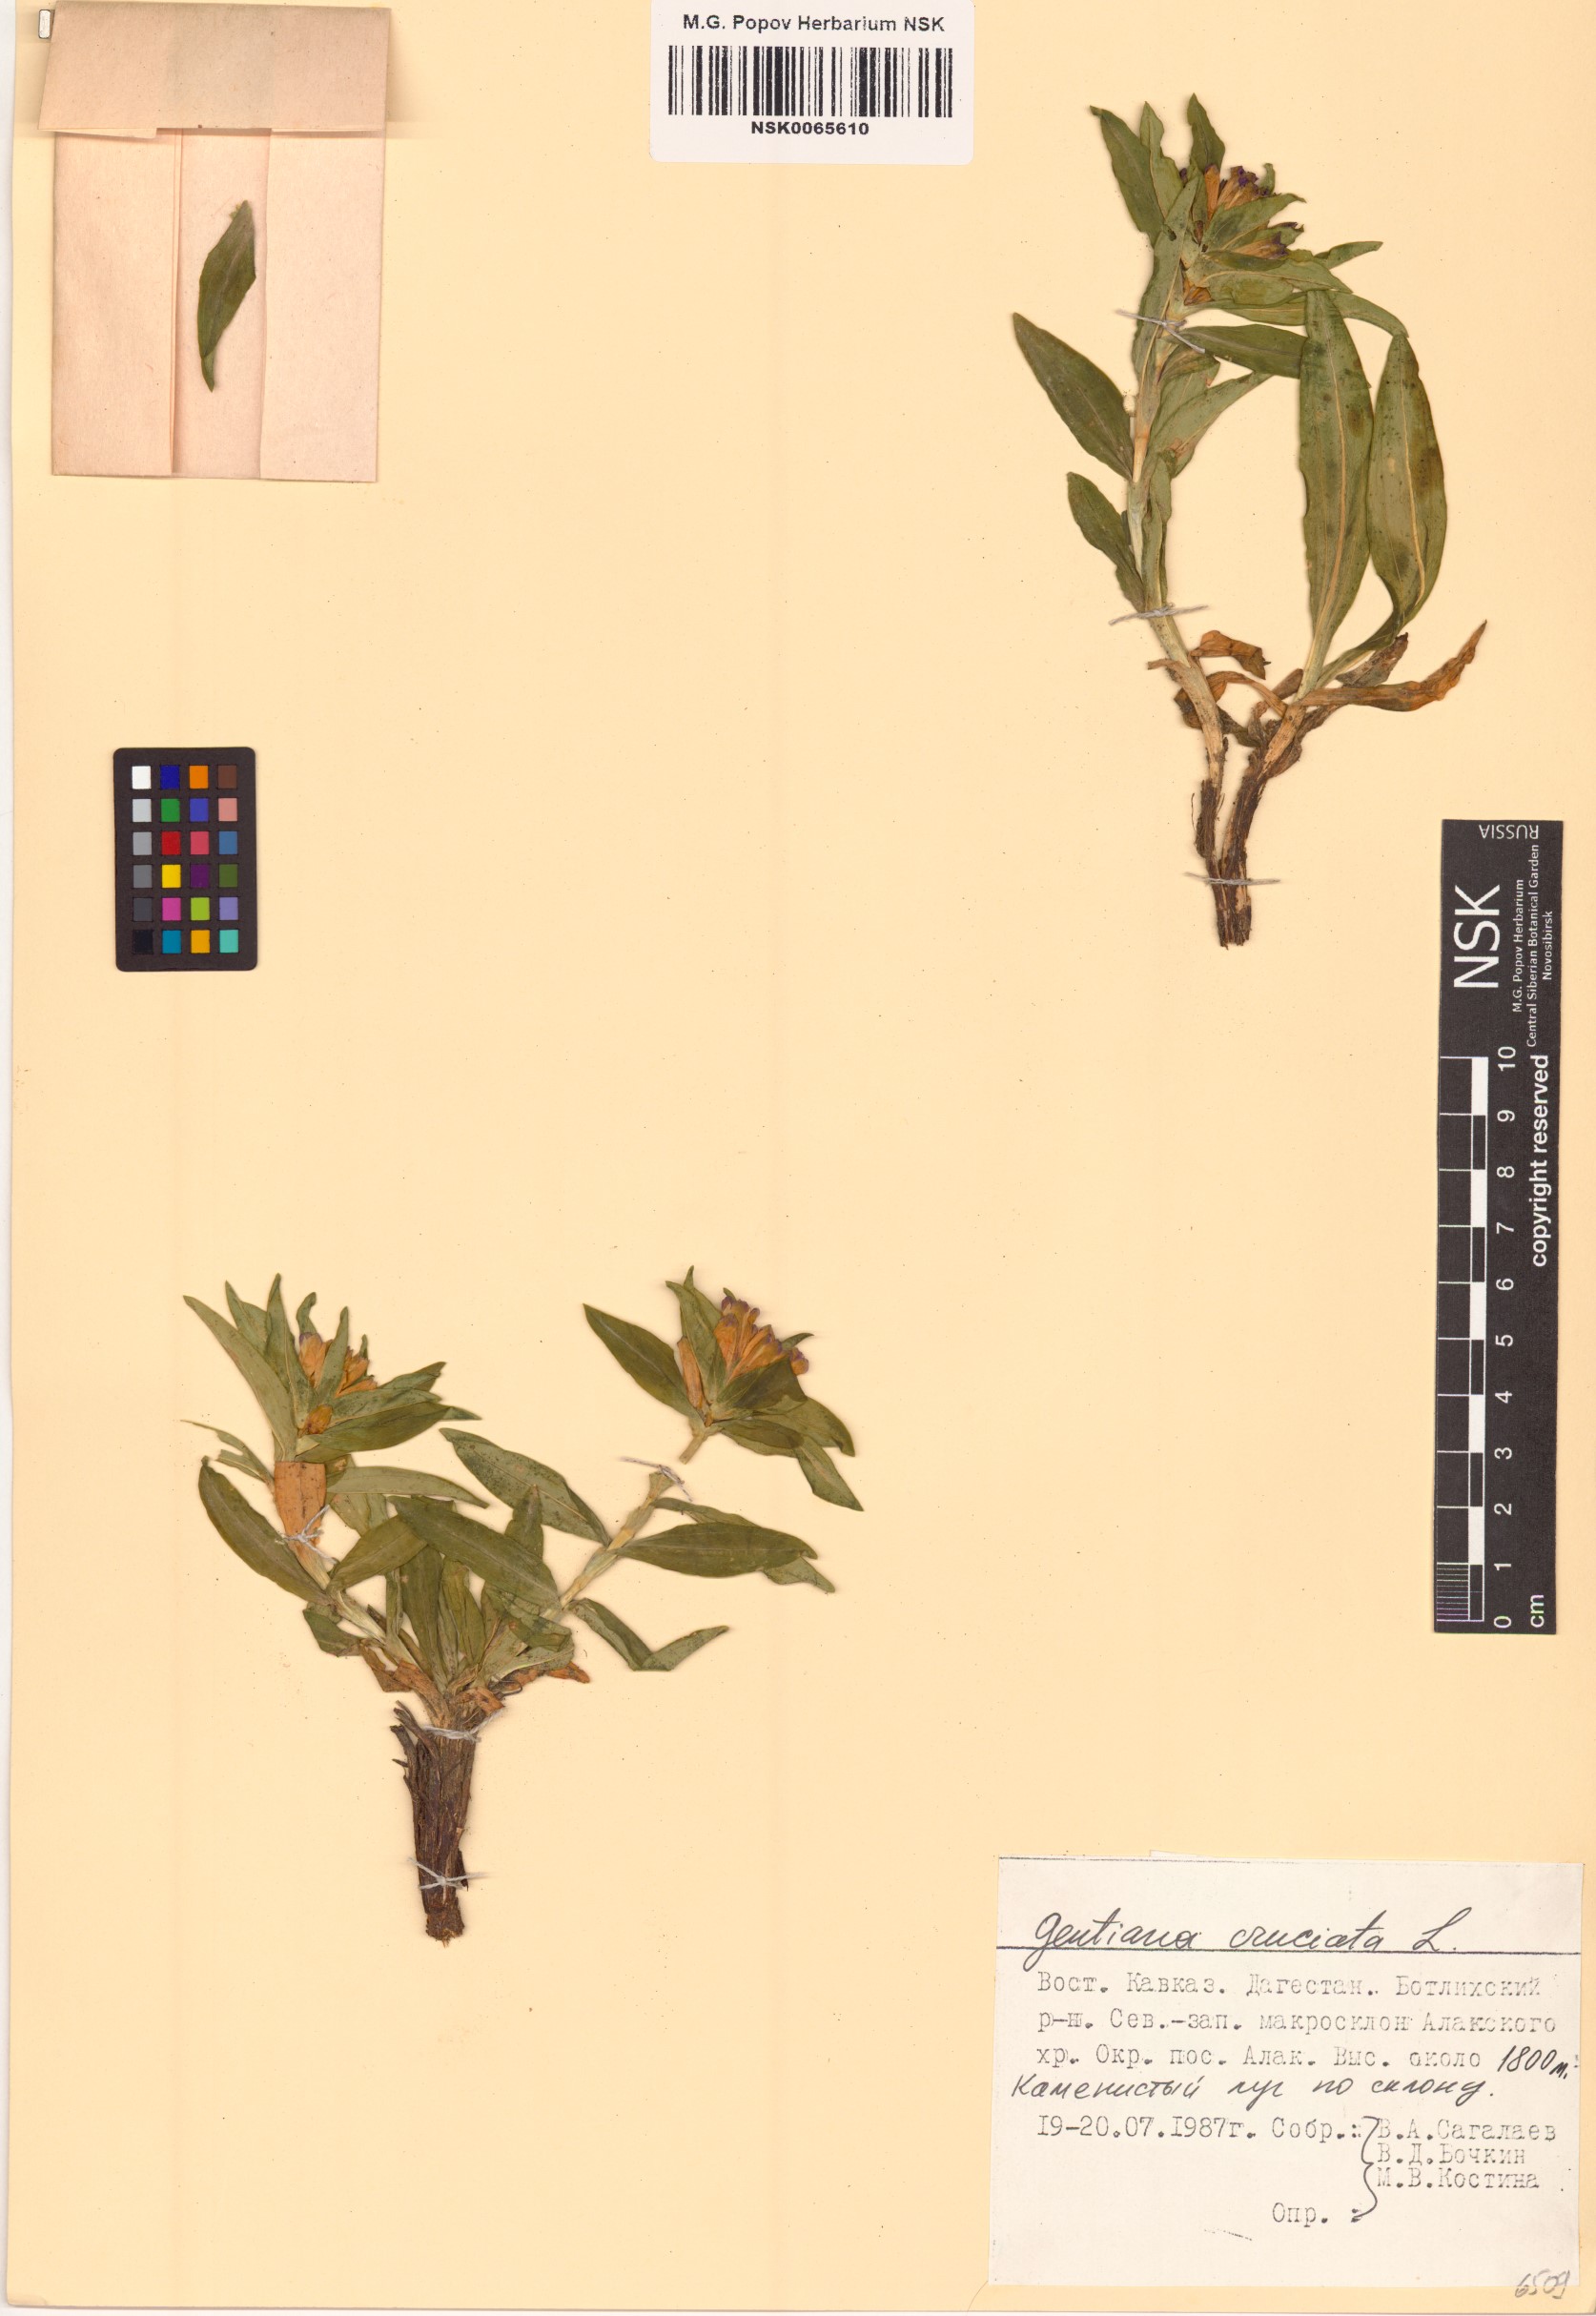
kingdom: Plantae
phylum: Tracheophyta
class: Magnoliopsida
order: Gentianales
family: Gentianaceae
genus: Gentiana
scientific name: Gentiana cruciata
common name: Cross gentian
